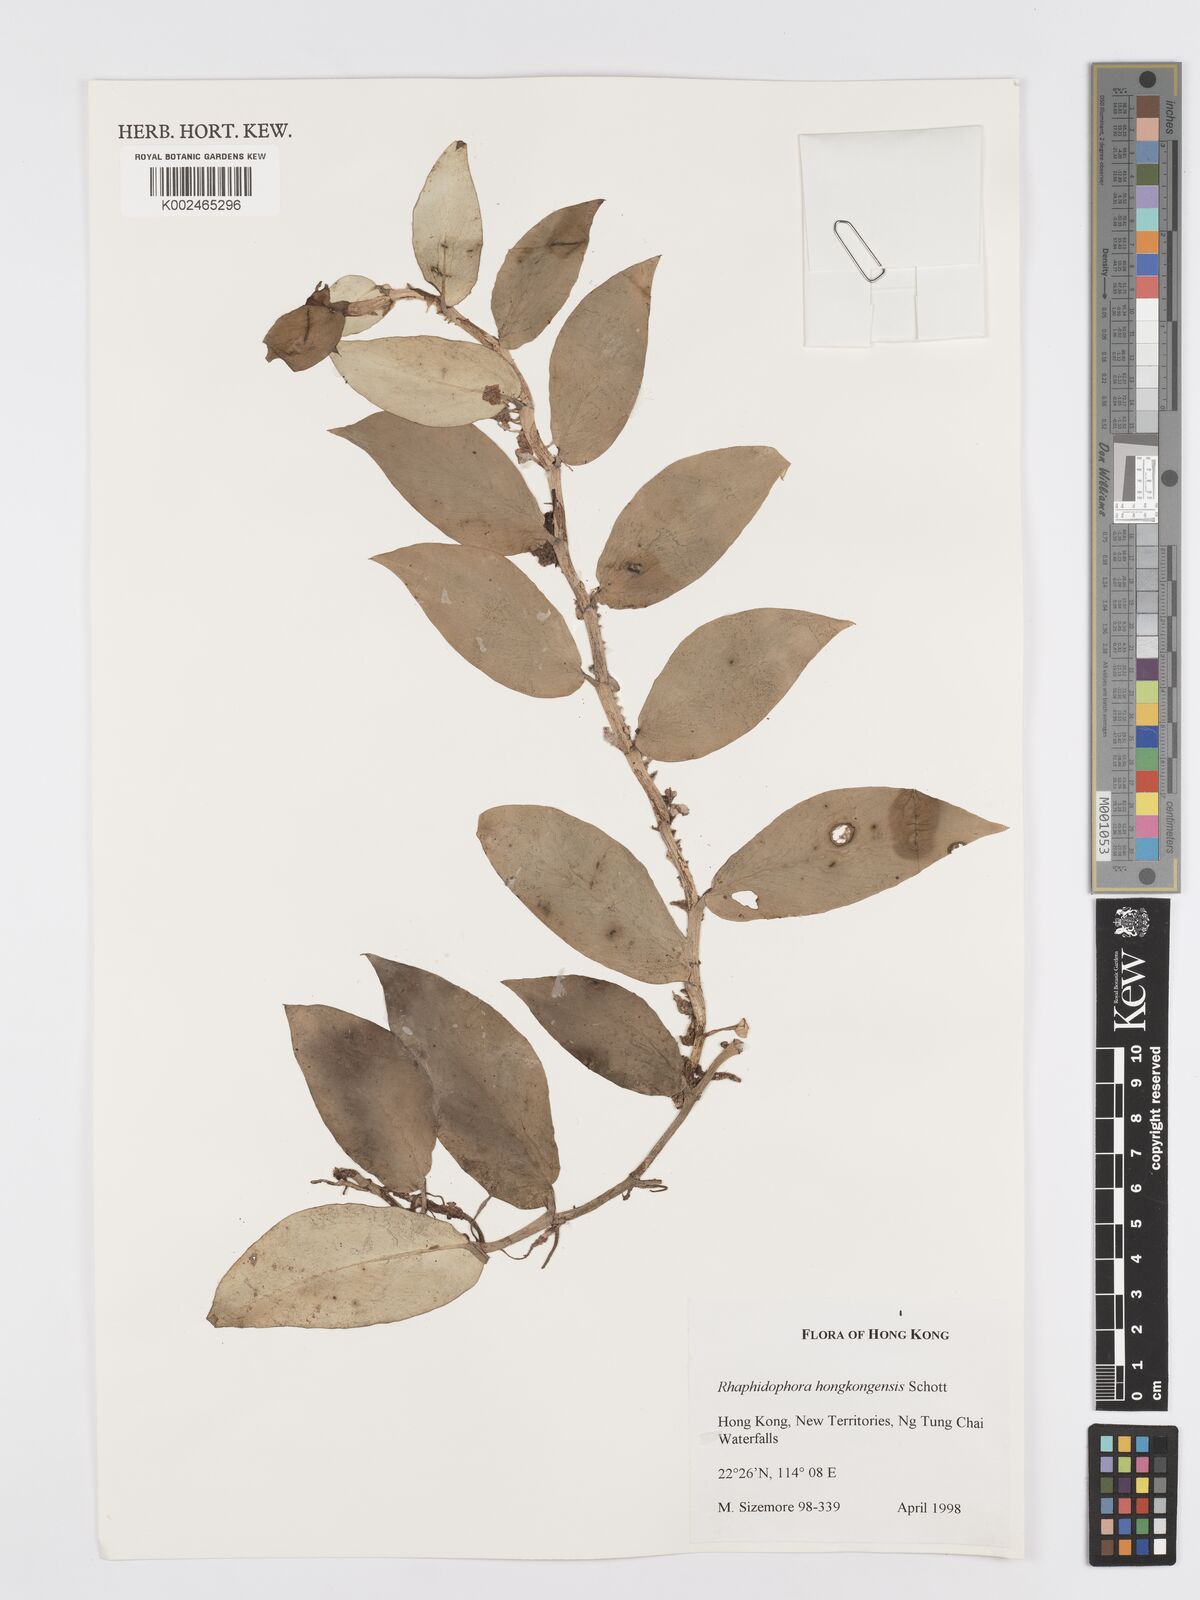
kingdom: Plantae
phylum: Tracheophyta
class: Liliopsida
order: Alismatales
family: Araceae
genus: Rhaphidophora
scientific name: Rhaphidophora hongkongensis
